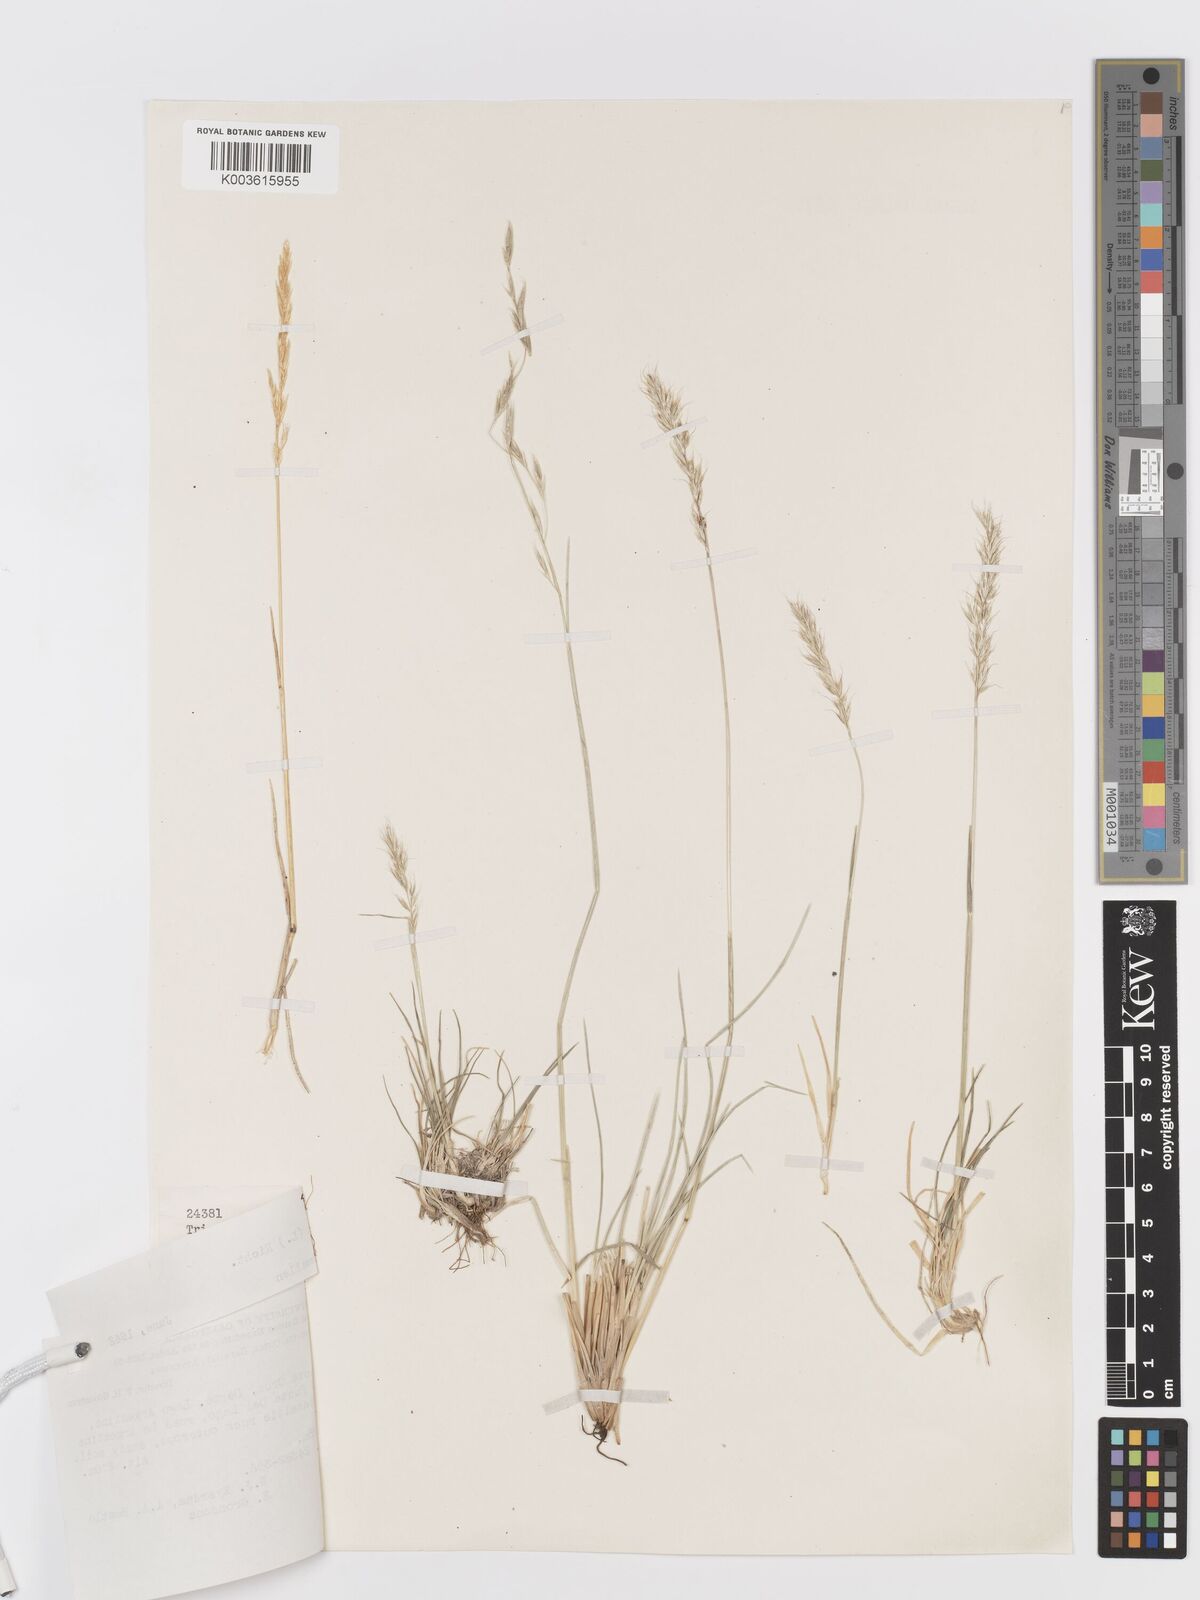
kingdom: Plantae
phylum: Tracheophyta
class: Liliopsida
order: Poales
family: Poaceae
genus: Koeleria
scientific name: Koeleria spicata
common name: Mountain trisetum
